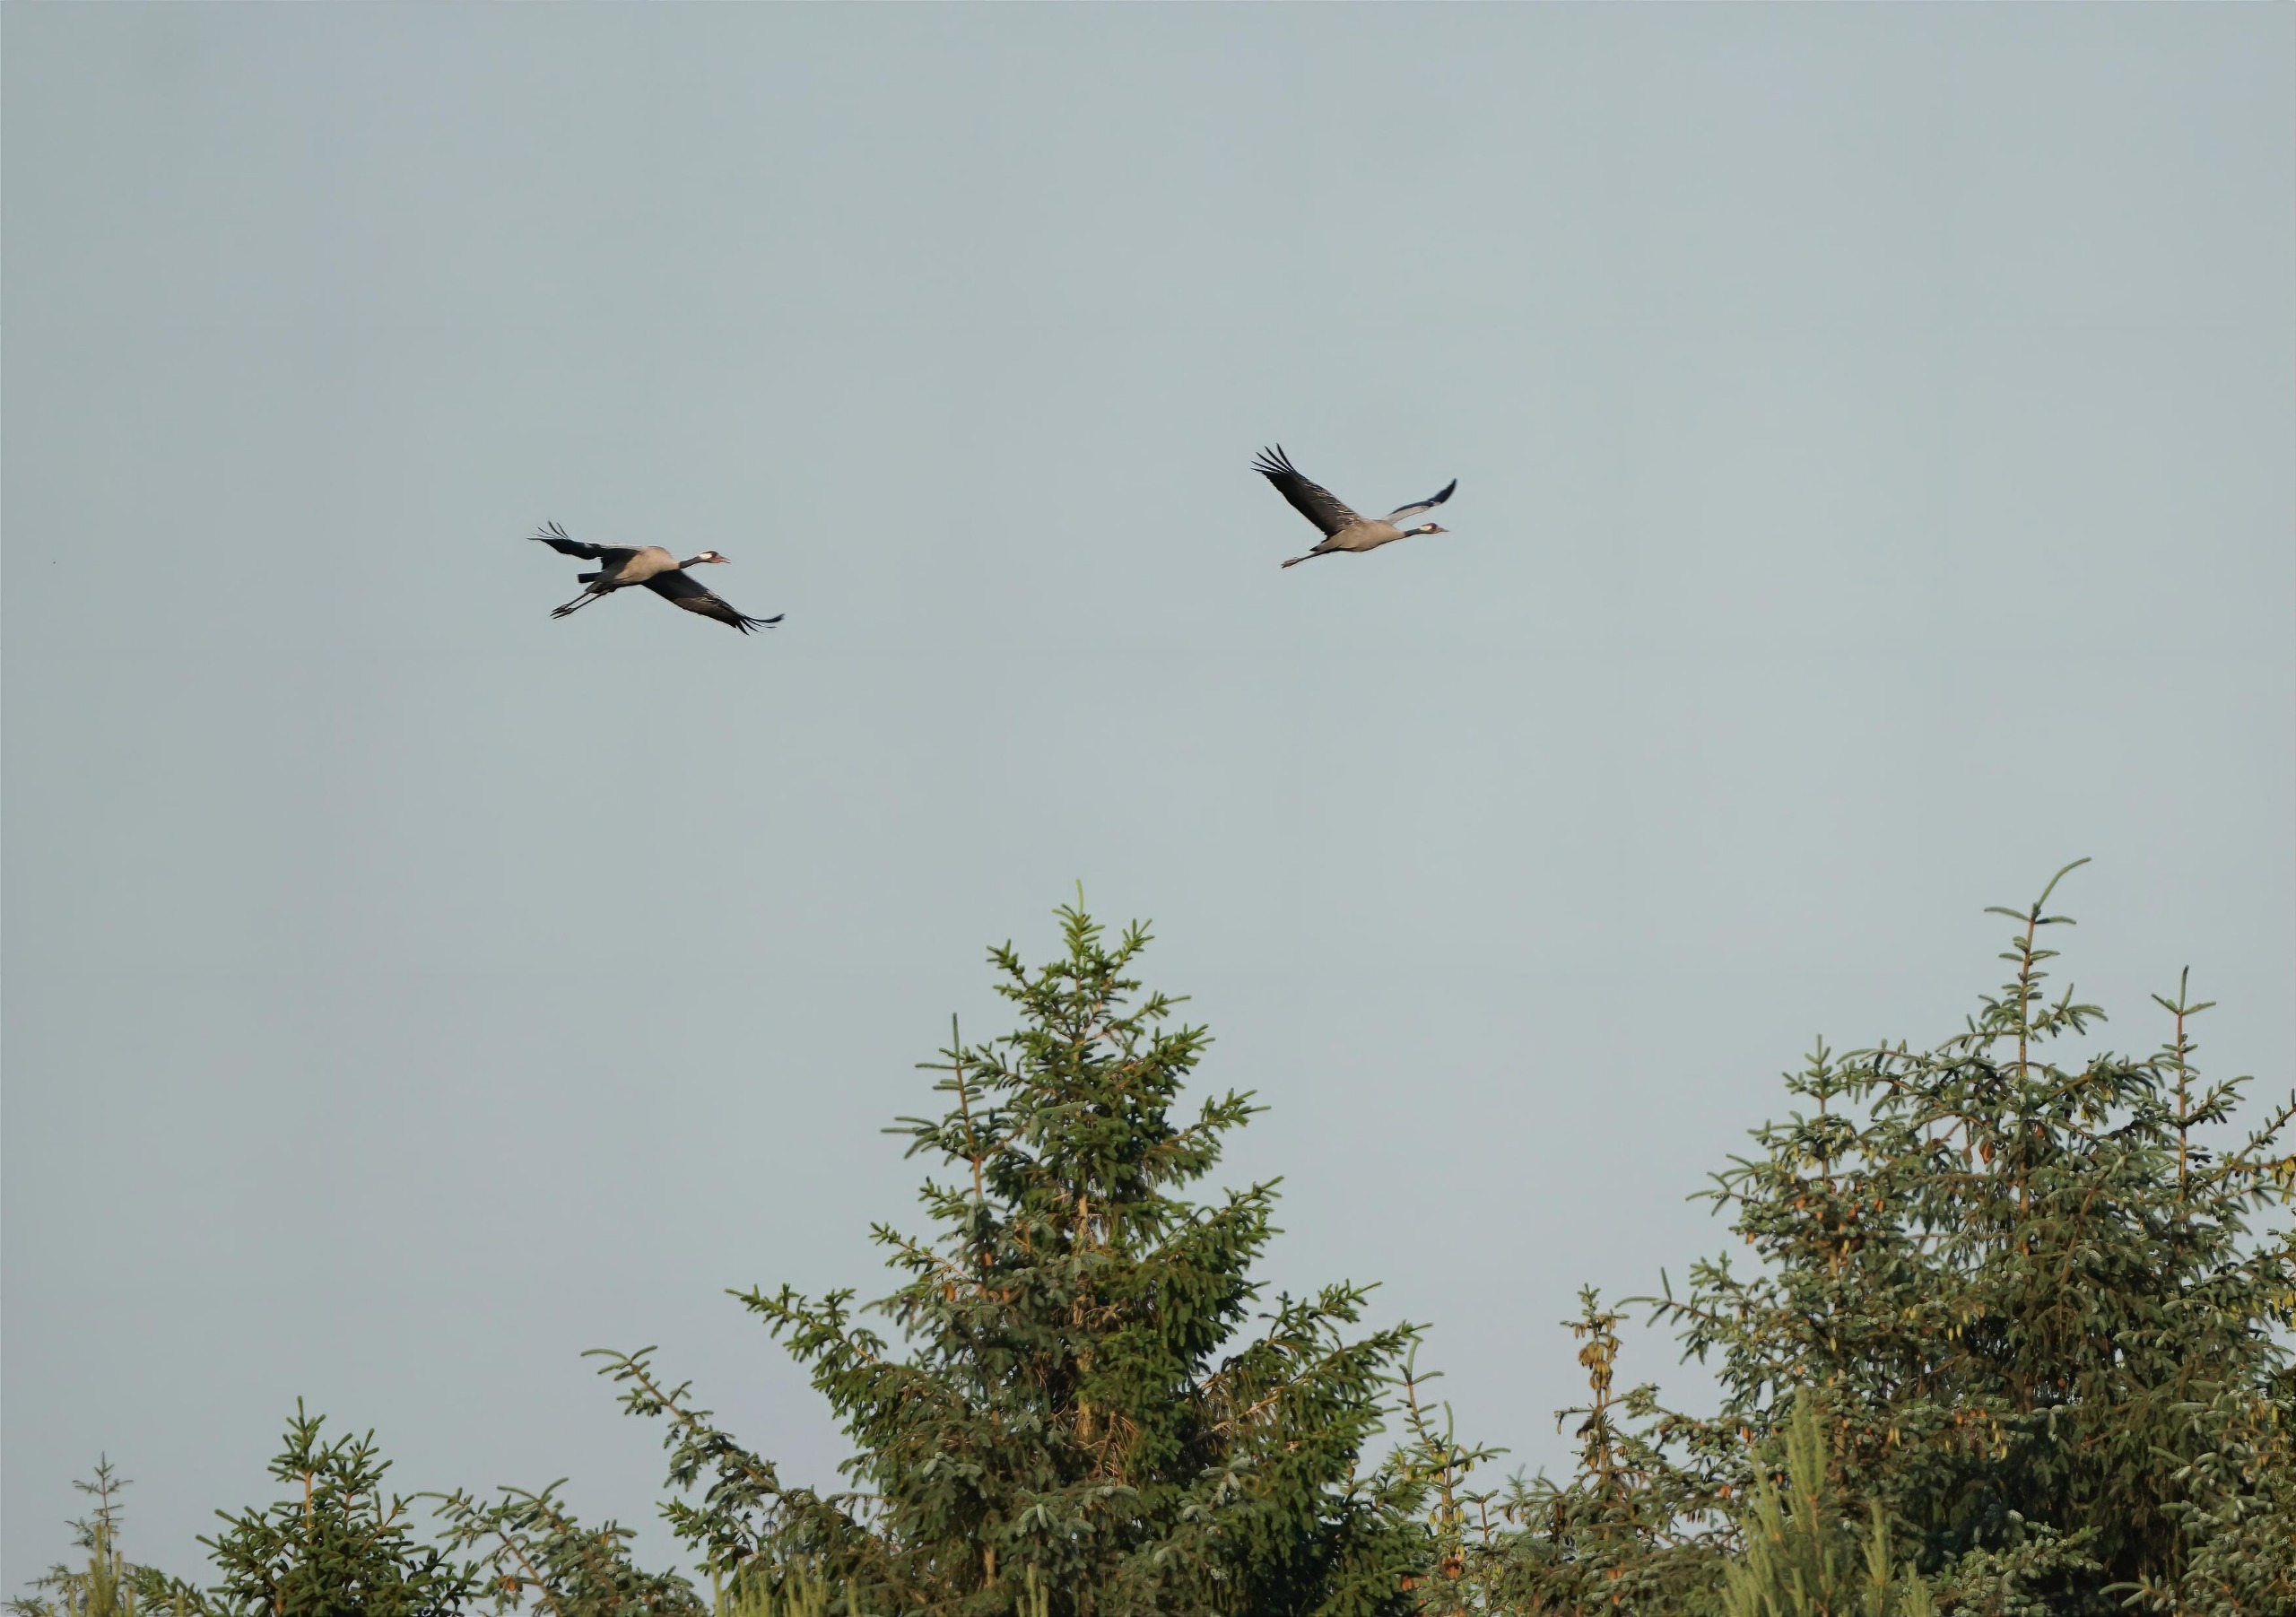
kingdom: Animalia
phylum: Chordata
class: Aves
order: Gruiformes
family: Gruidae
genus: Grus
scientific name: Grus grus
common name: Trane
